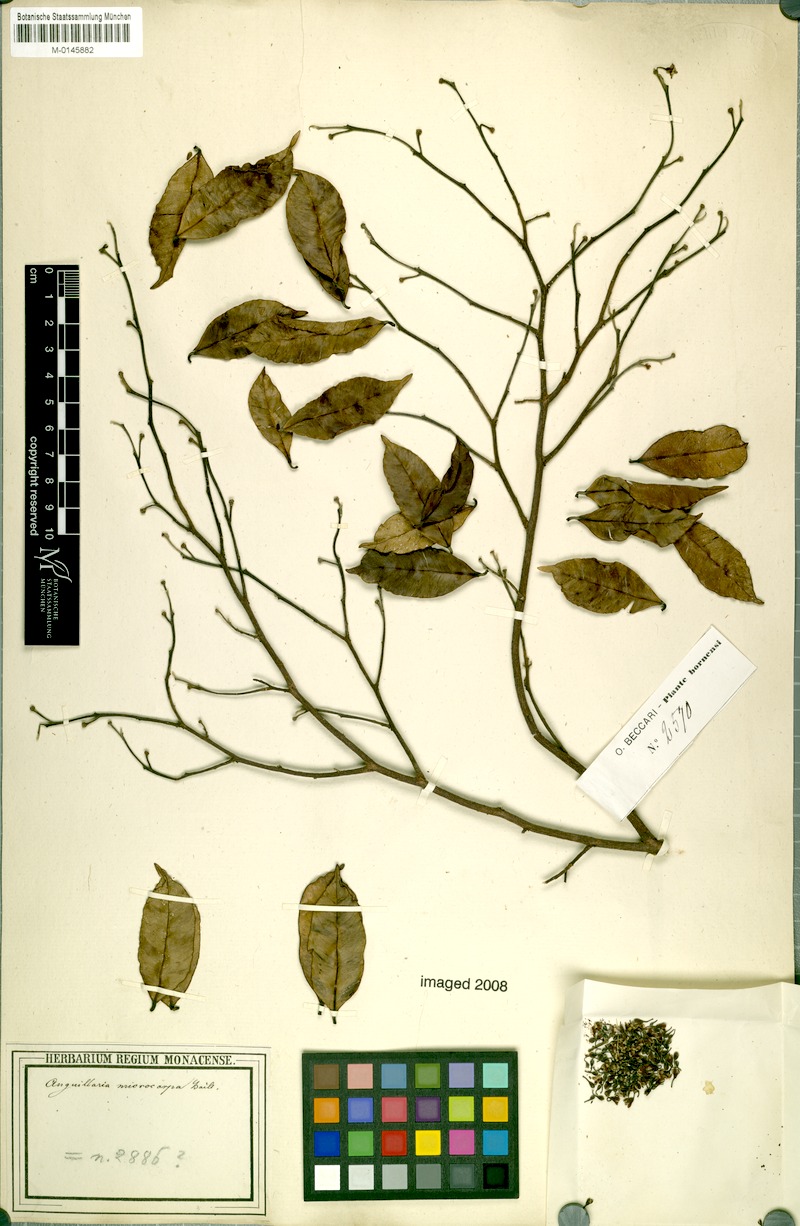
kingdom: Plantae
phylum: Tracheophyta
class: Magnoliopsida
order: Malvales
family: Thymelaeaceae
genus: Aquilaria
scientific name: Aquilaria microcarpa
